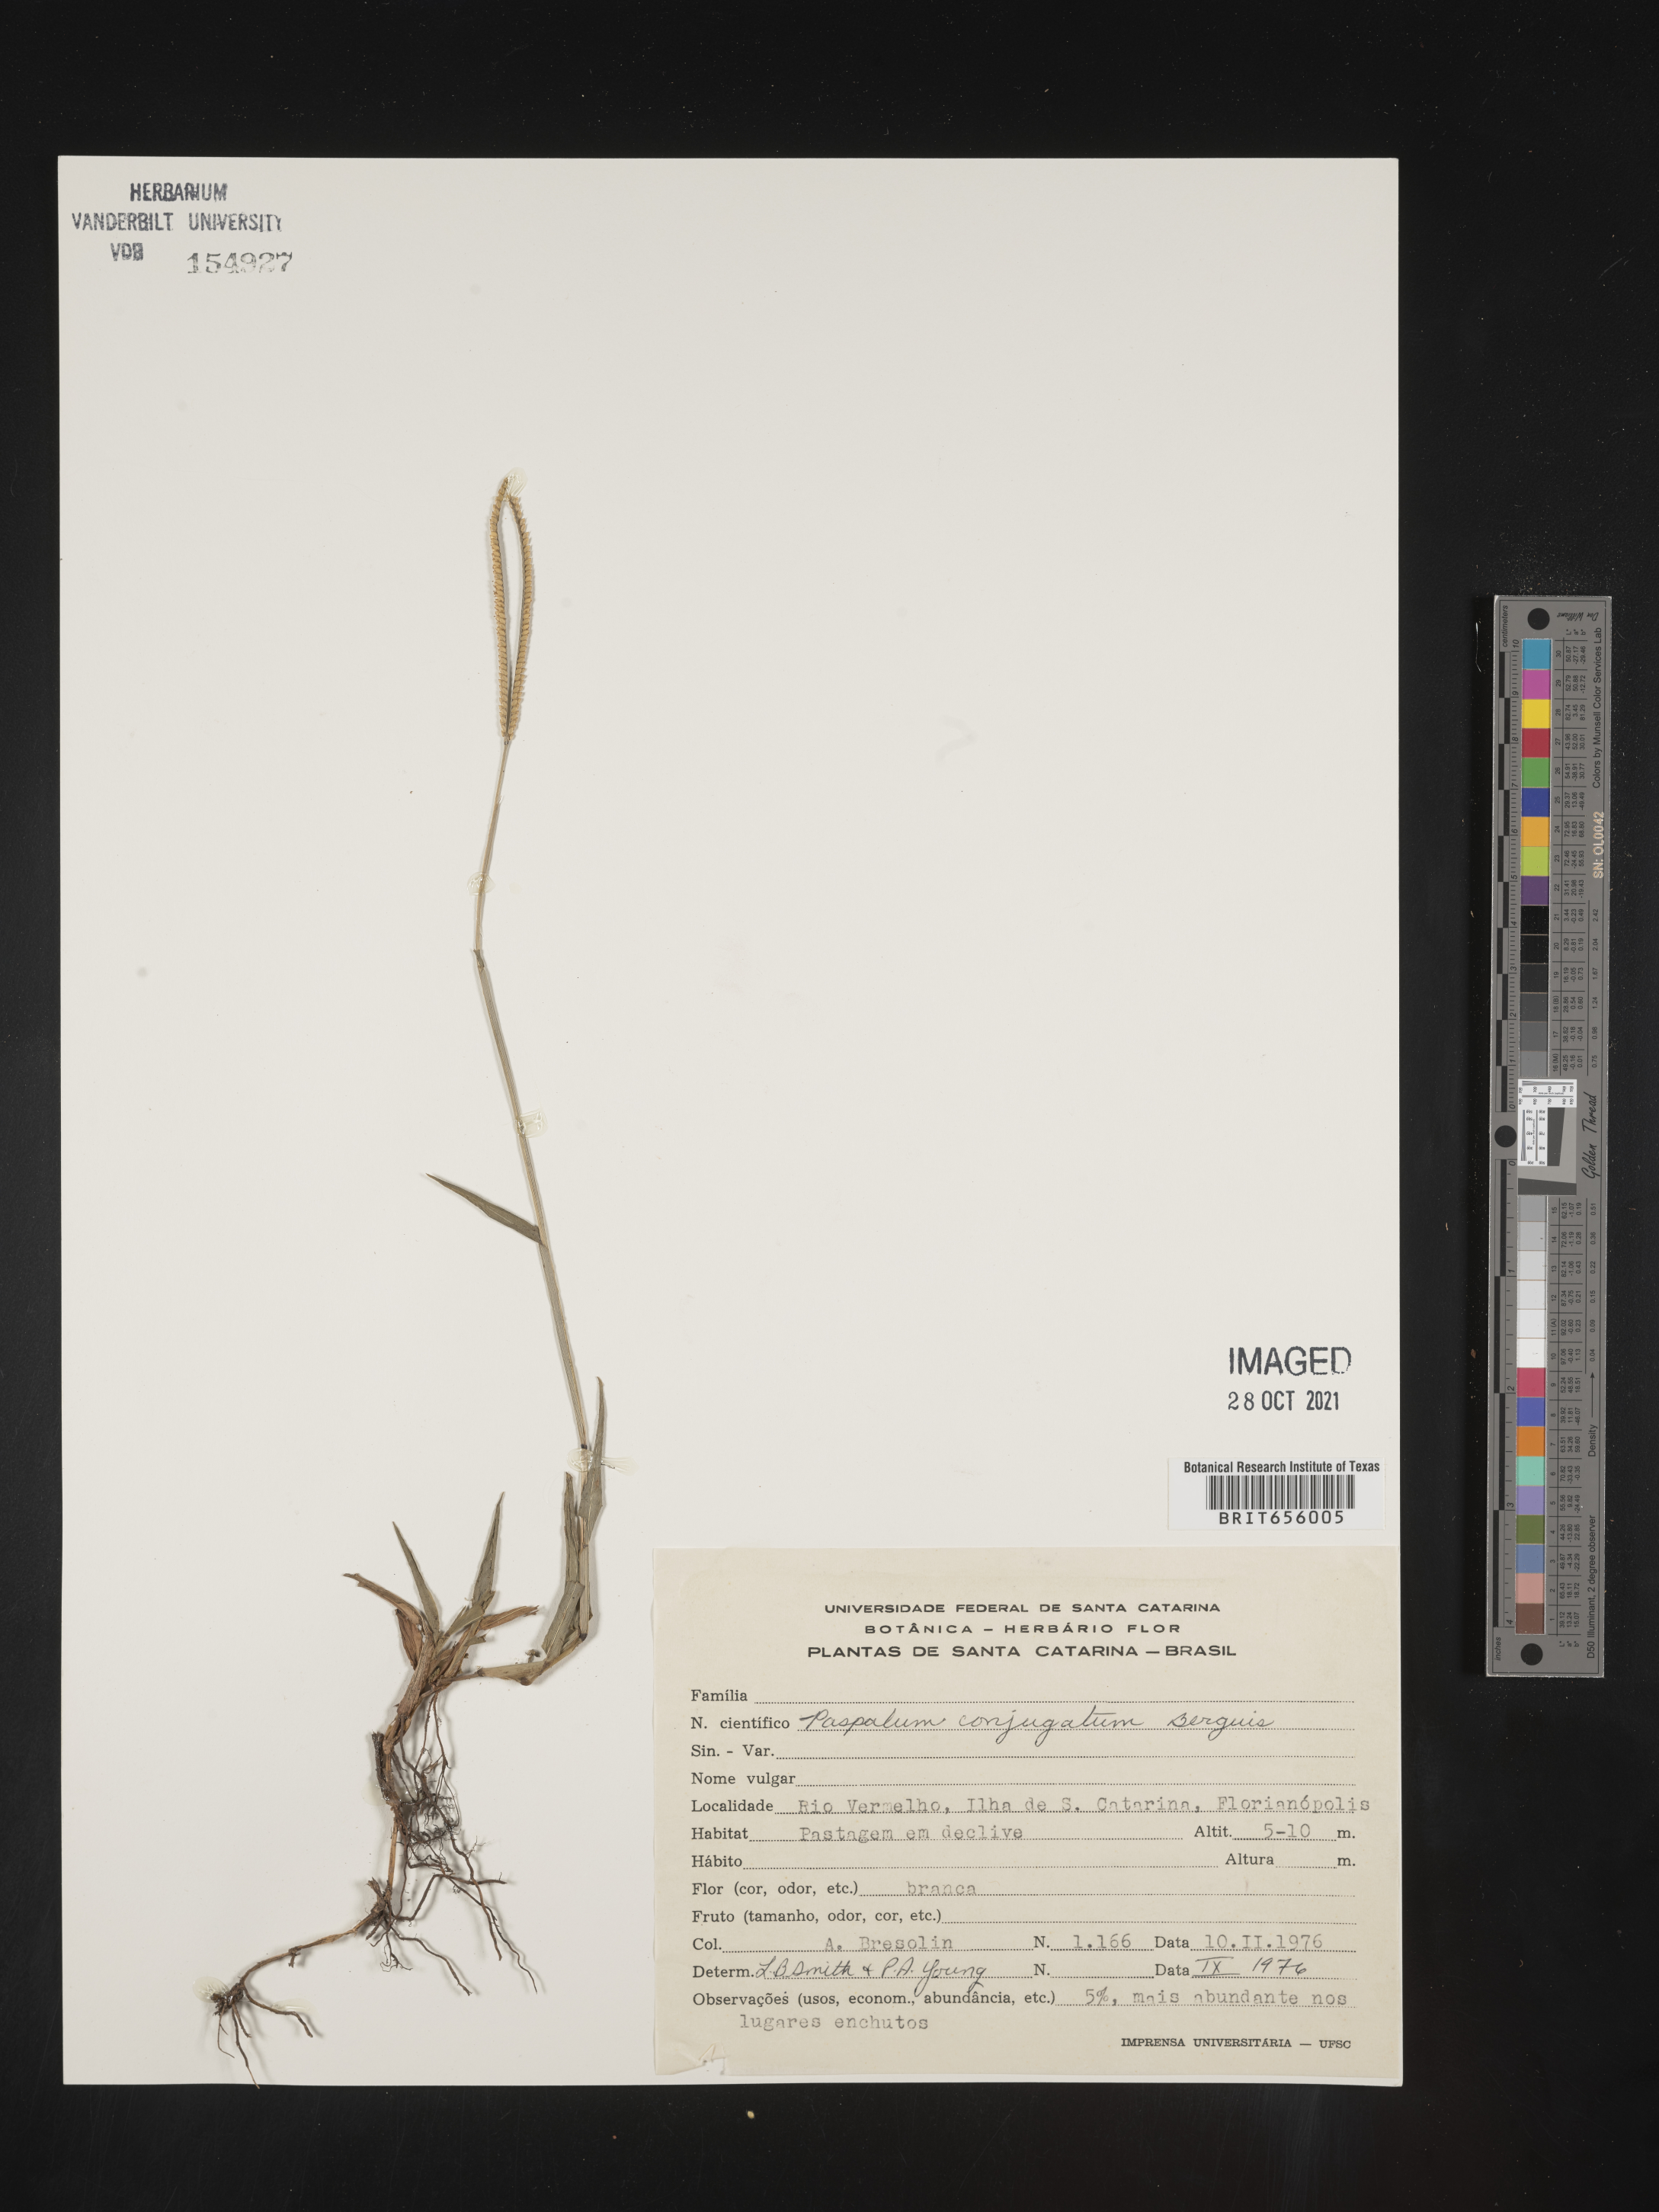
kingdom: Plantae
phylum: Tracheophyta
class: Liliopsida
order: Poales
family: Poaceae
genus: Paspalum
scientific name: Paspalum
